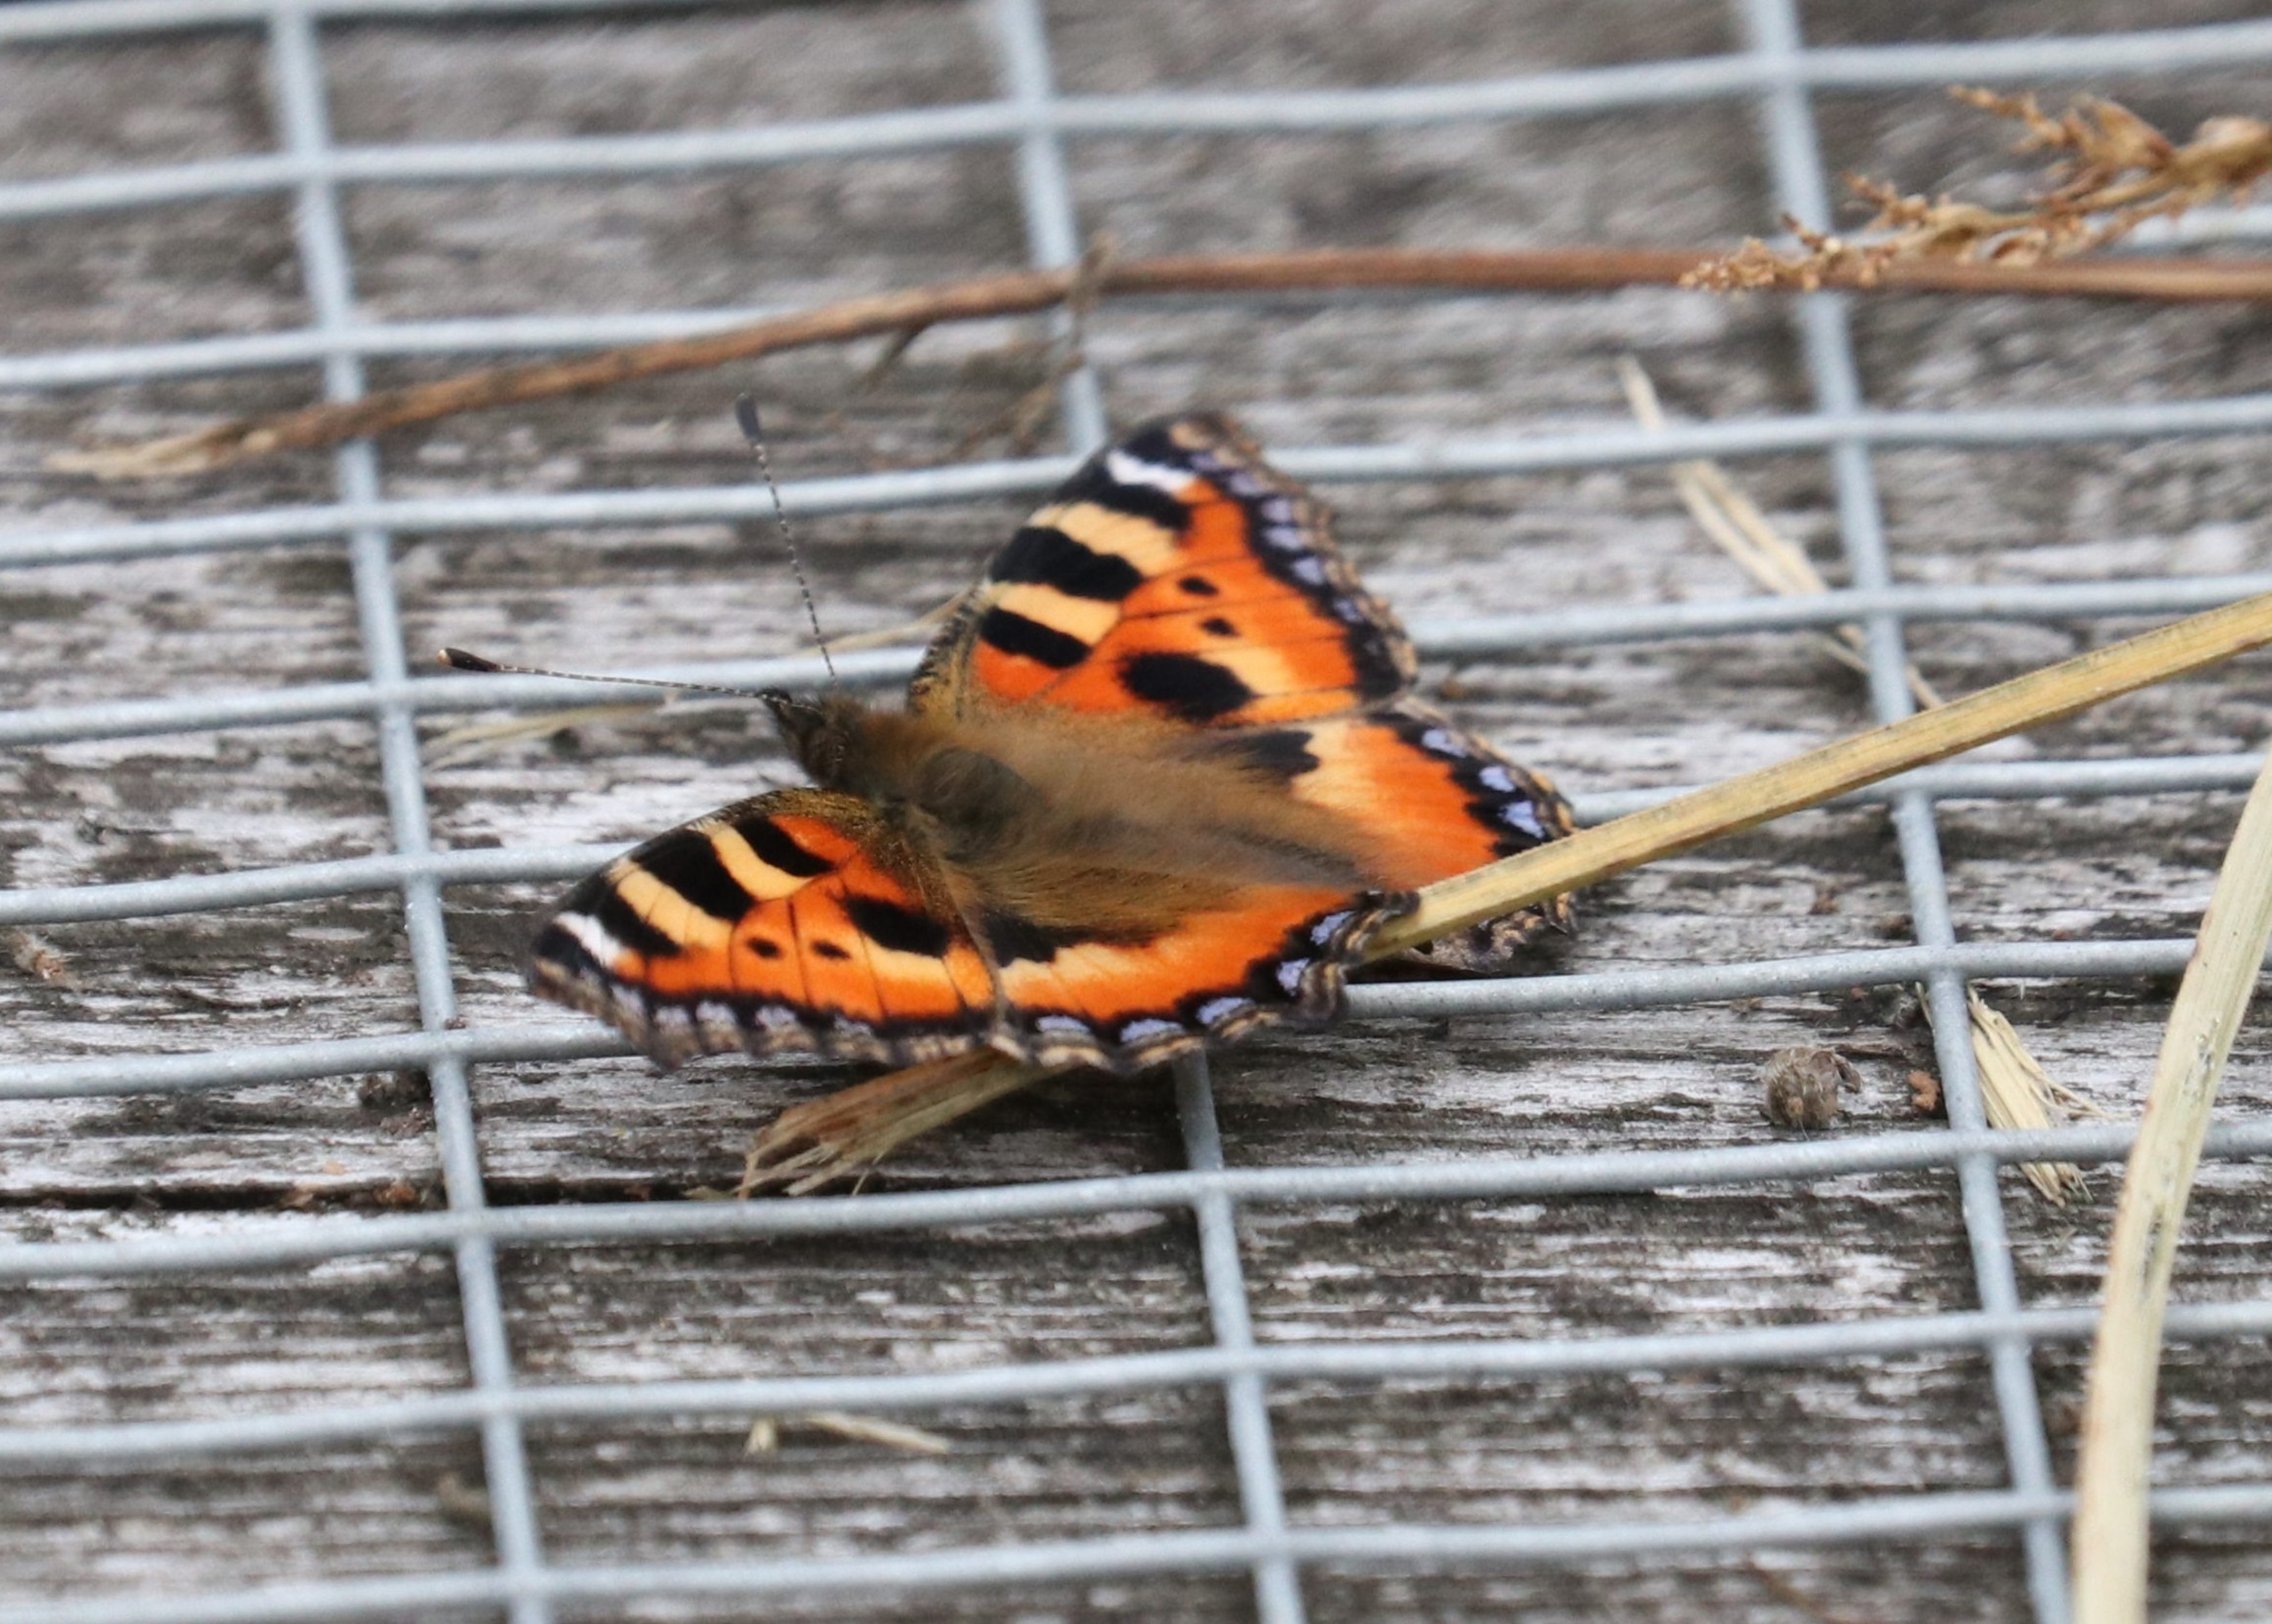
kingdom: Animalia
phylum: Arthropoda
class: Insecta
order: Lepidoptera
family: Nymphalidae
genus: Aglais
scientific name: Aglais urticae
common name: Nældens takvinge
